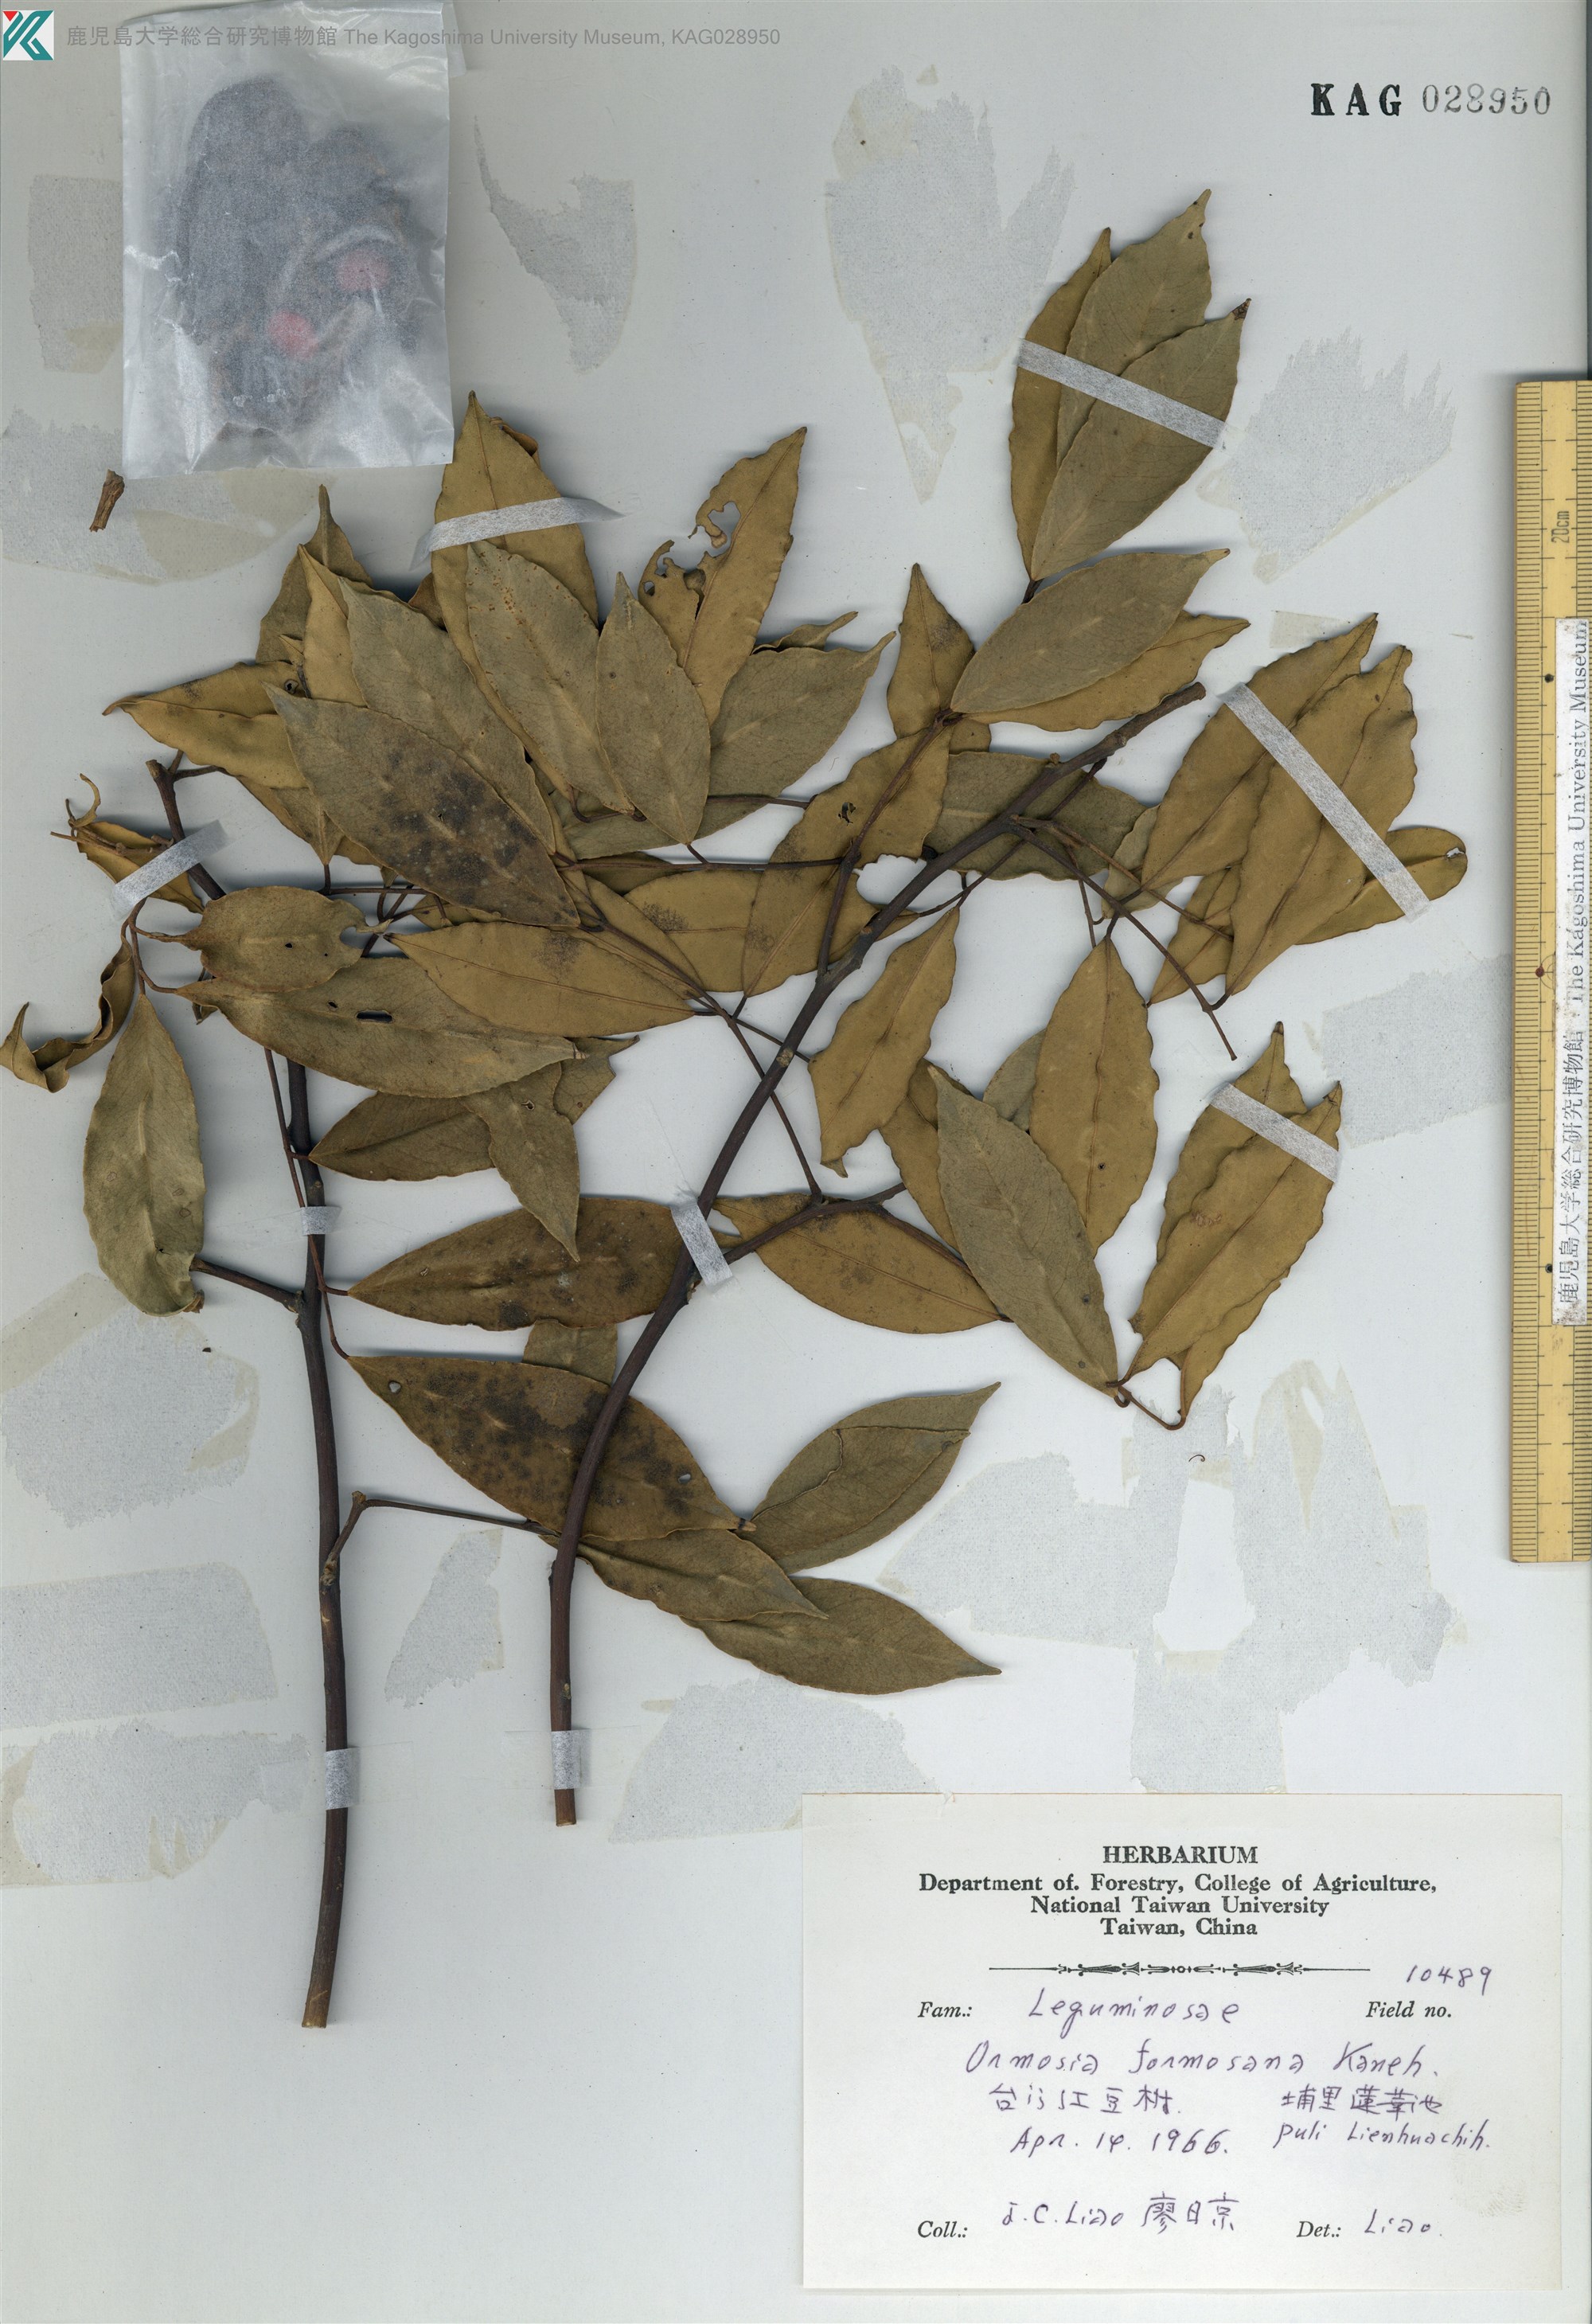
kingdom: Plantae
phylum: Tracheophyta
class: Magnoliopsida
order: Fabales
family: Fabaceae
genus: Ormosia
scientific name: Ormosia formosana
